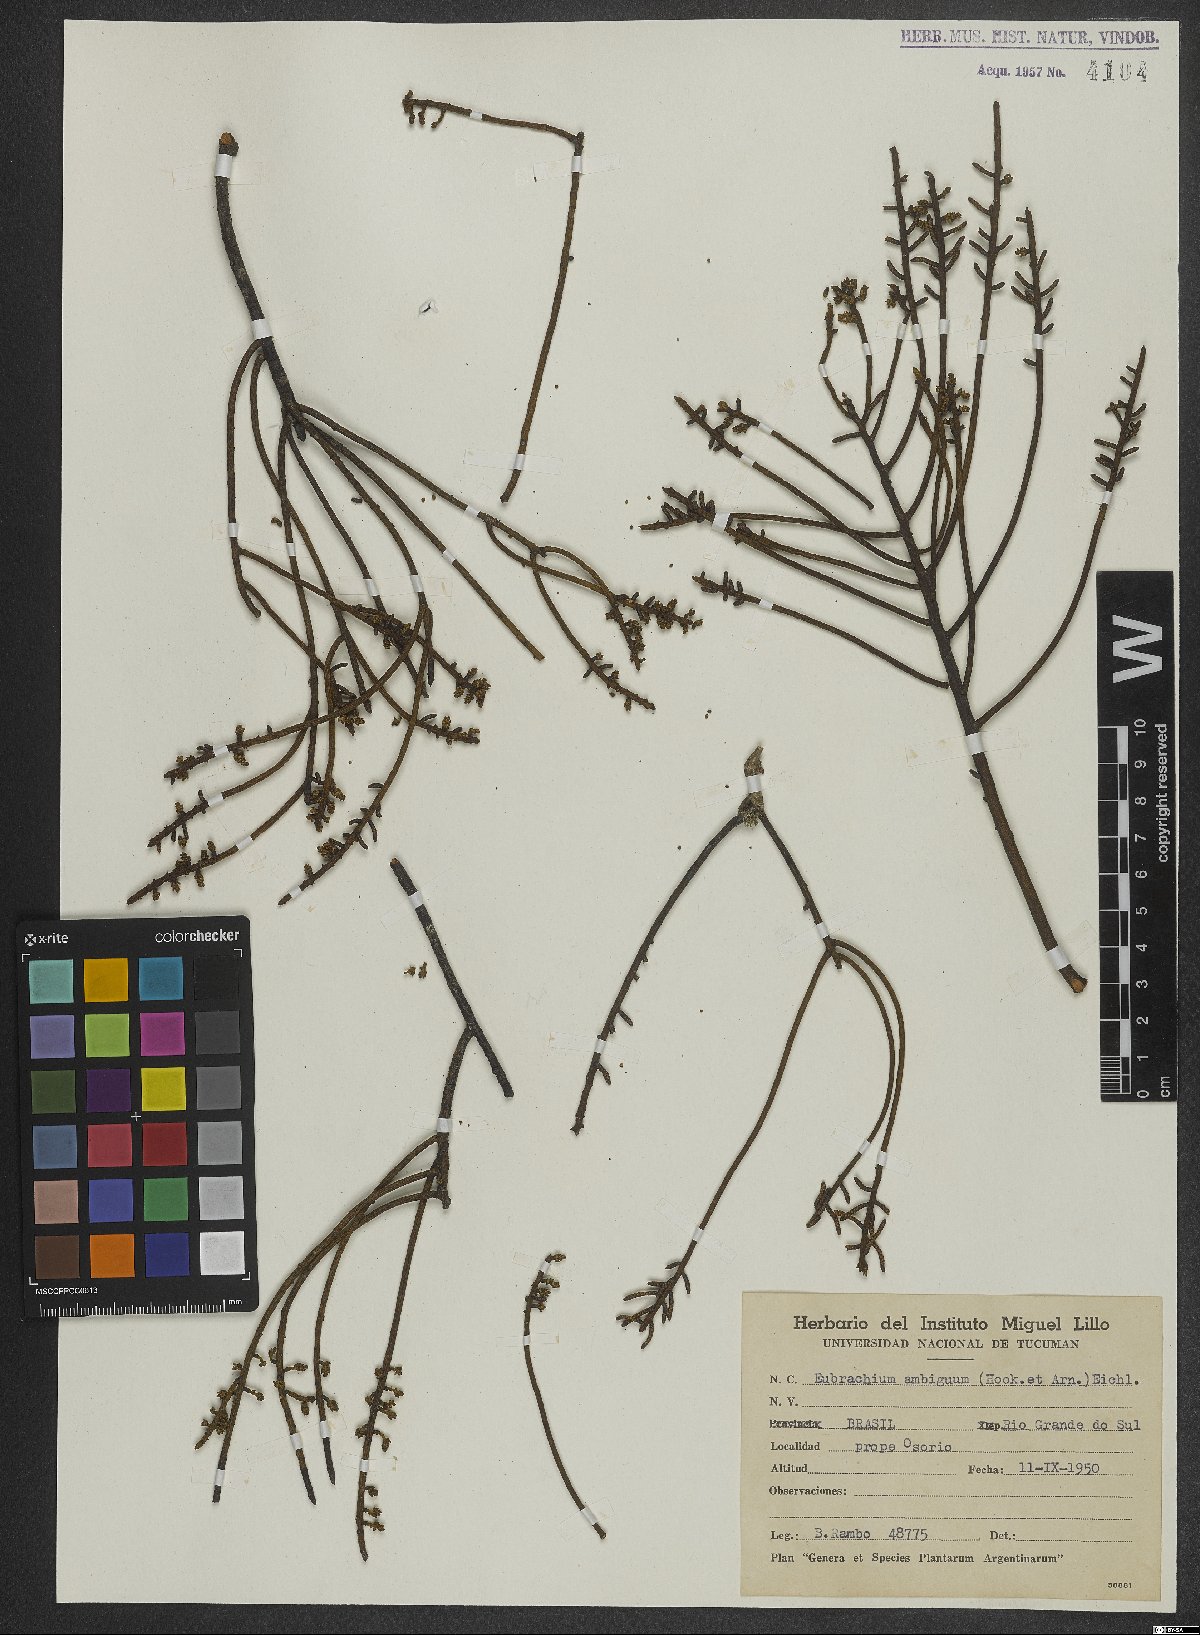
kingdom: Plantae
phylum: Tracheophyta
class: Magnoliopsida
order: Santalales
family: Santalaceae
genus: Eubrachion
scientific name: Eubrachion ambiguum
